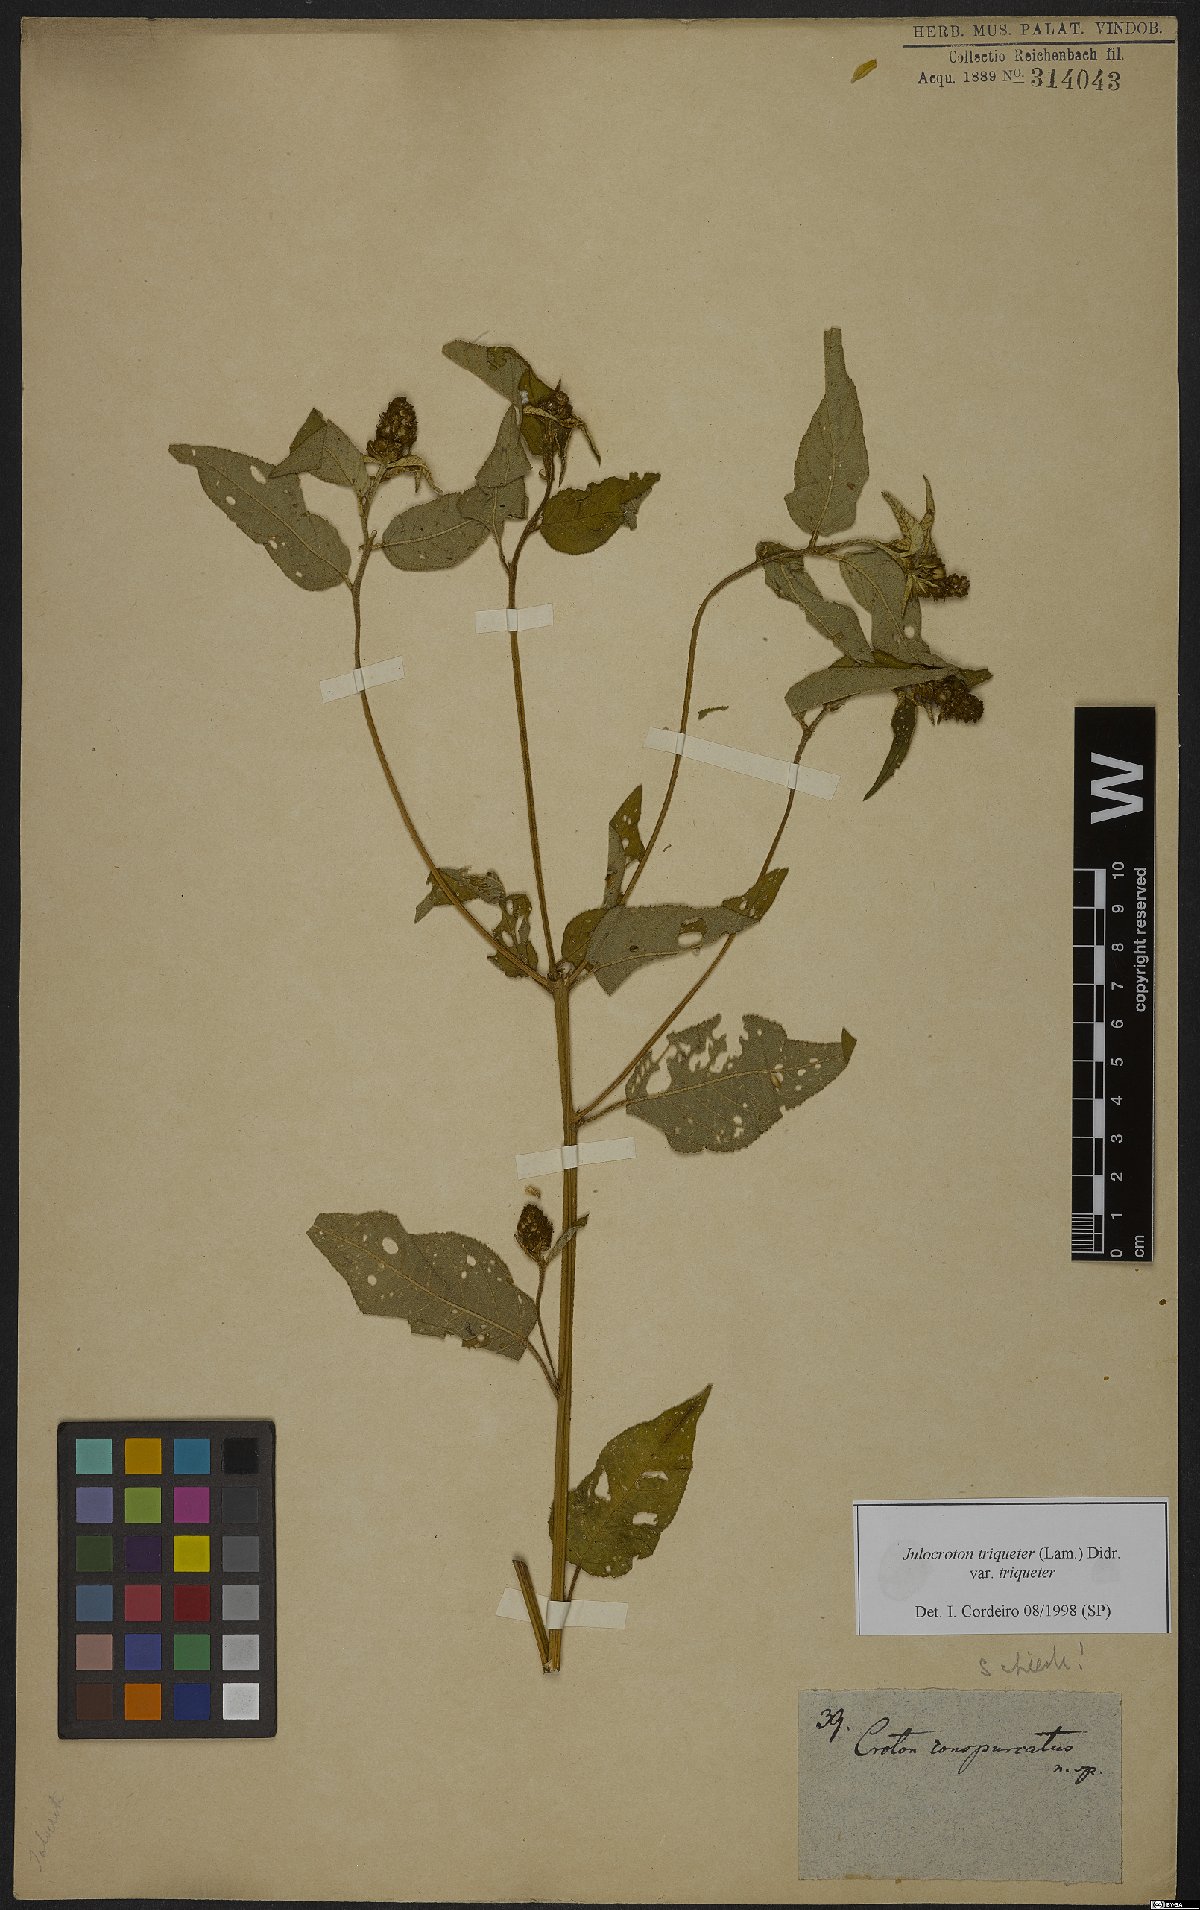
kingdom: Plantae
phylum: Tracheophyta
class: Magnoliopsida
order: Malpighiales
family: Euphorbiaceae
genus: Croton
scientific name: Croton triqueter
